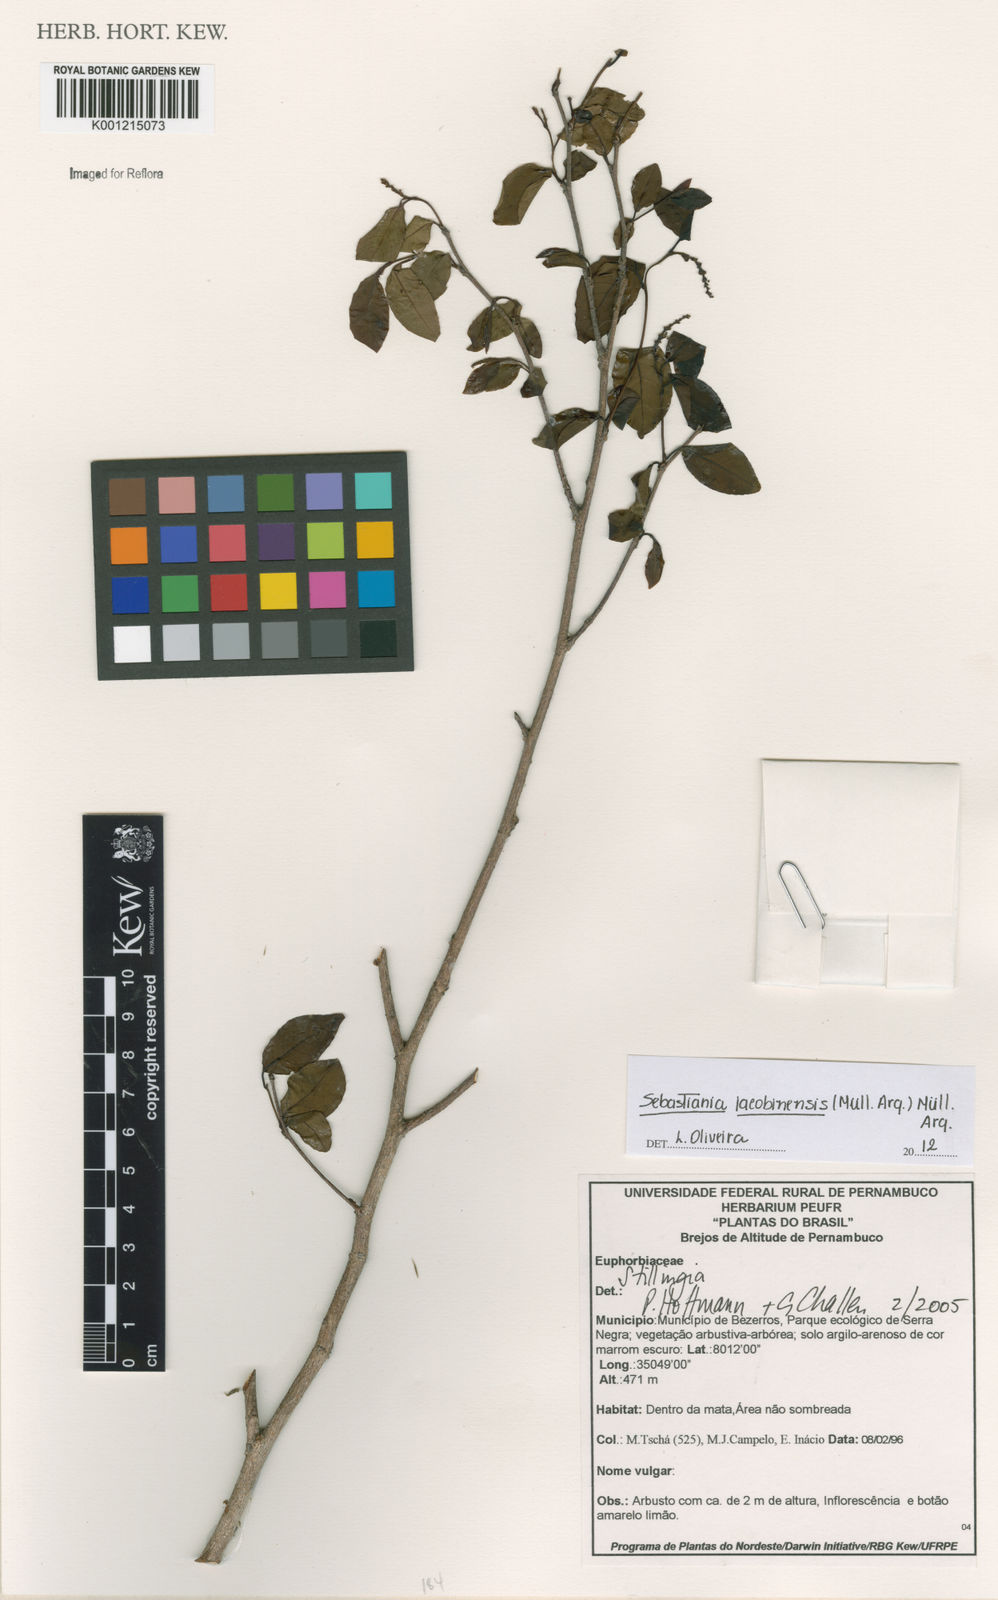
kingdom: Plantae
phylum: Tracheophyta
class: Magnoliopsida
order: Malpighiales
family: Euphorbiaceae
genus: Sebastiania
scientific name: Sebastiania
